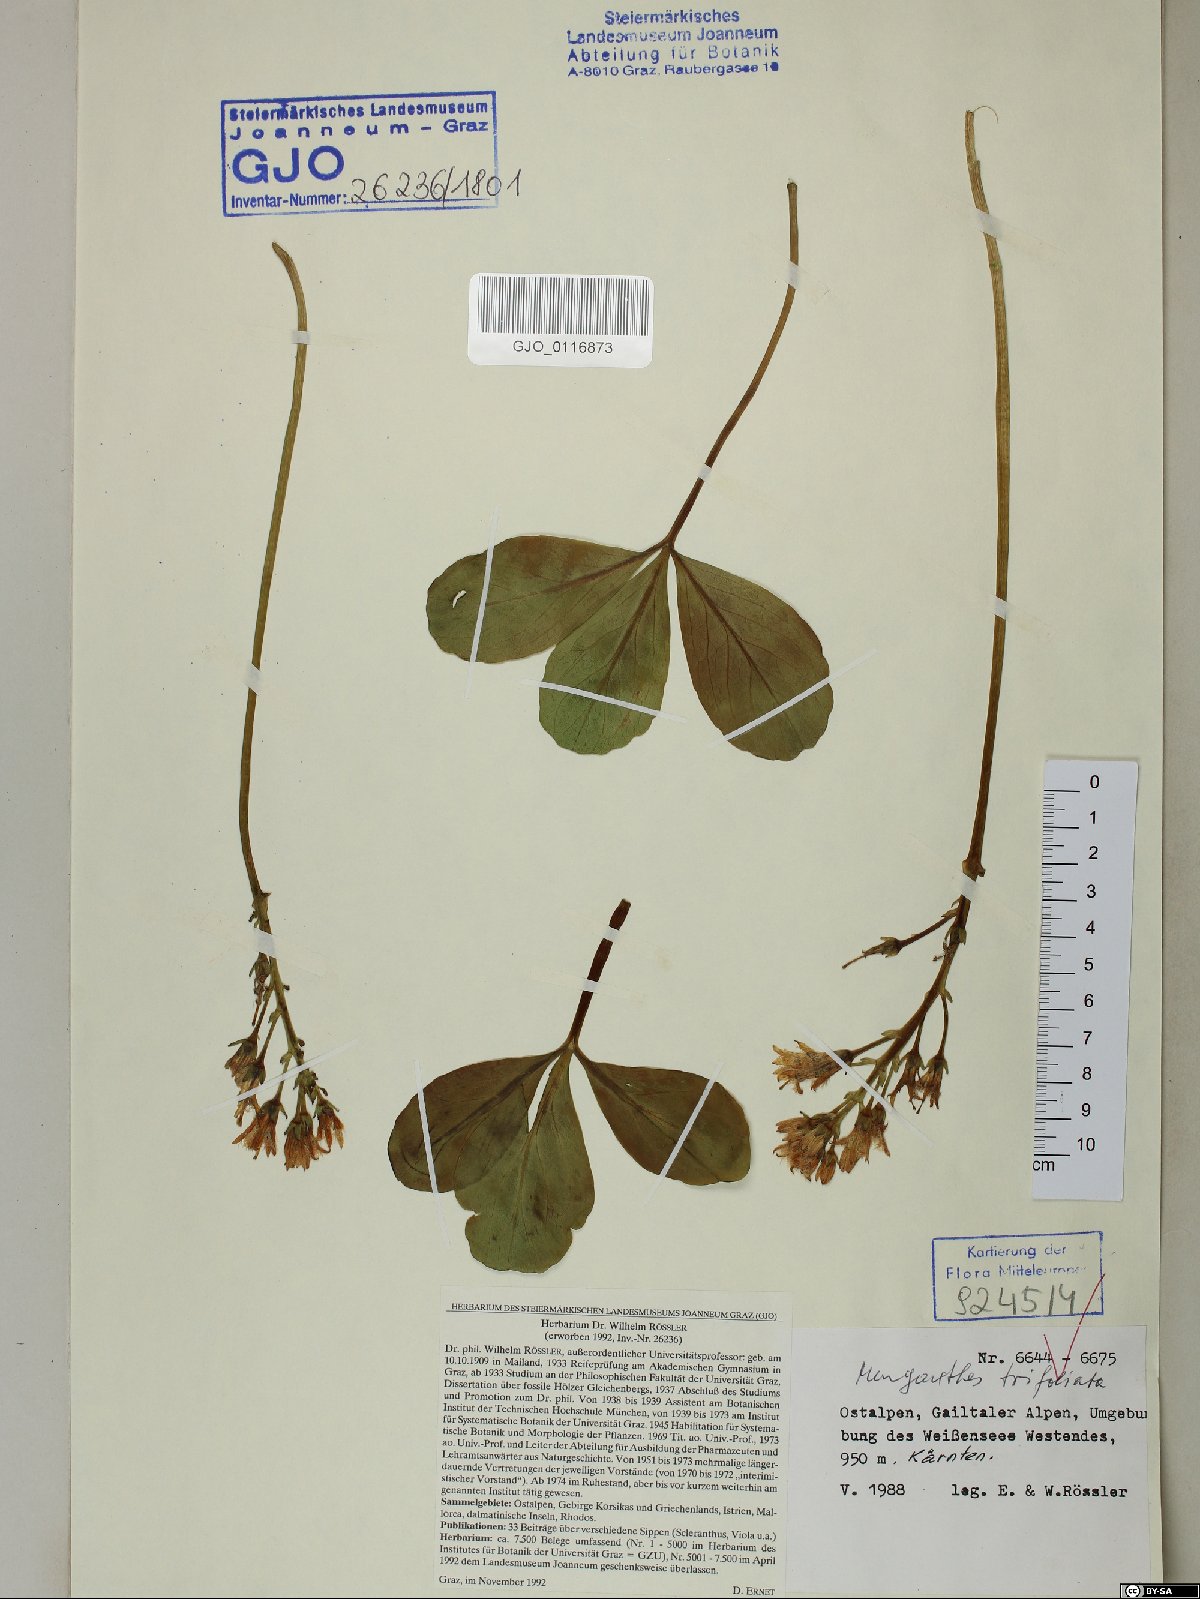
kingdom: Plantae
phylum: Tracheophyta
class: Magnoliopsida
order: Fabales
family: Fabaceae
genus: Hippocrepis
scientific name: Hippocrepis comosa
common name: Horseshoe vetch
